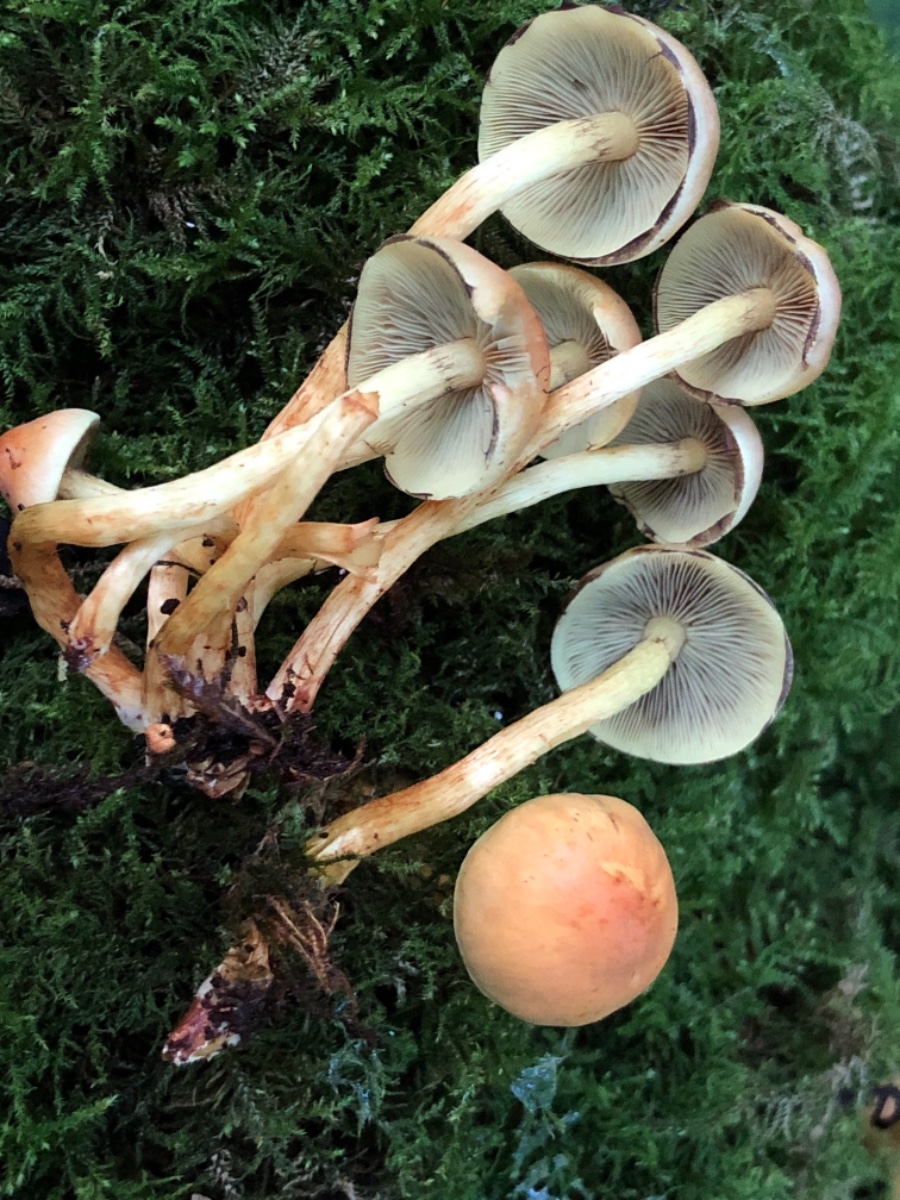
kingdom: Fungi
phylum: Basidiomycota
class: Agaricomycetes
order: Agaricales
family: Strophariaceae
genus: Hypholoma
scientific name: Hypholoma fasciculare
